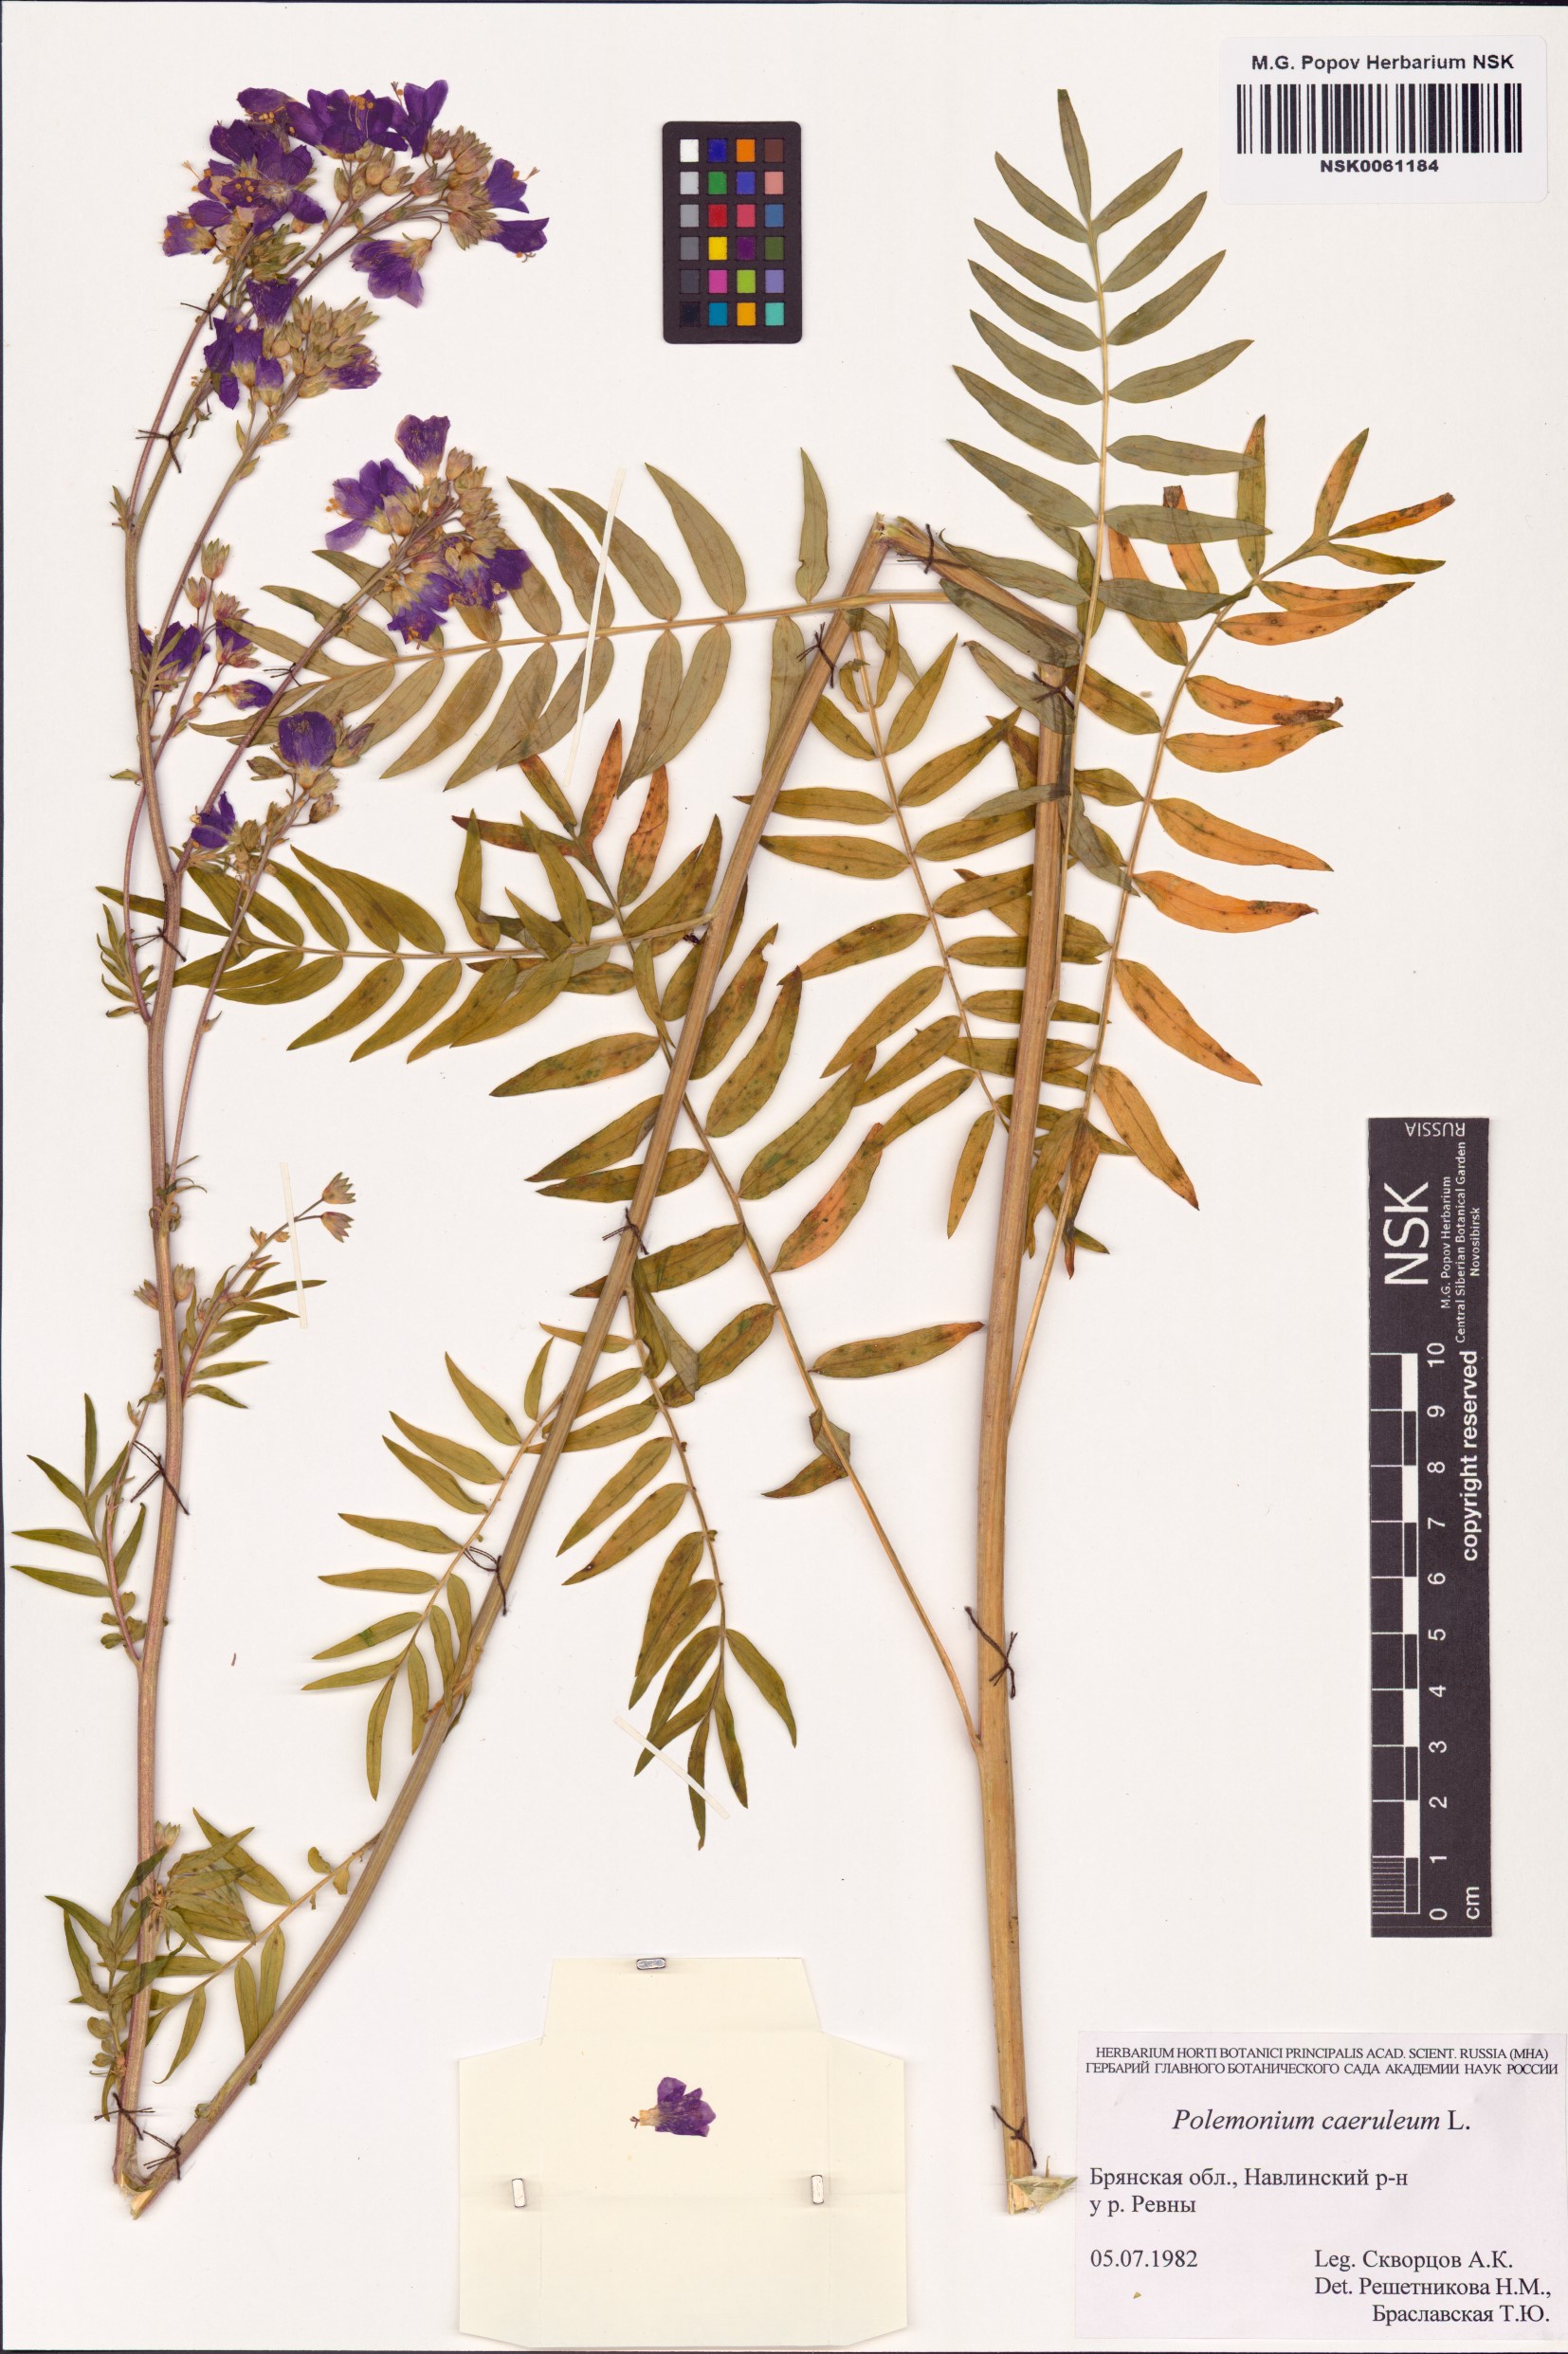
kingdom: Plantae
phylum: Tracheophyta
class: Magnoliopsida
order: Ericales
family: Polemoniaceae
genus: Polemonium
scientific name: Polemonium caeruleum
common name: Jacob's-ladder
